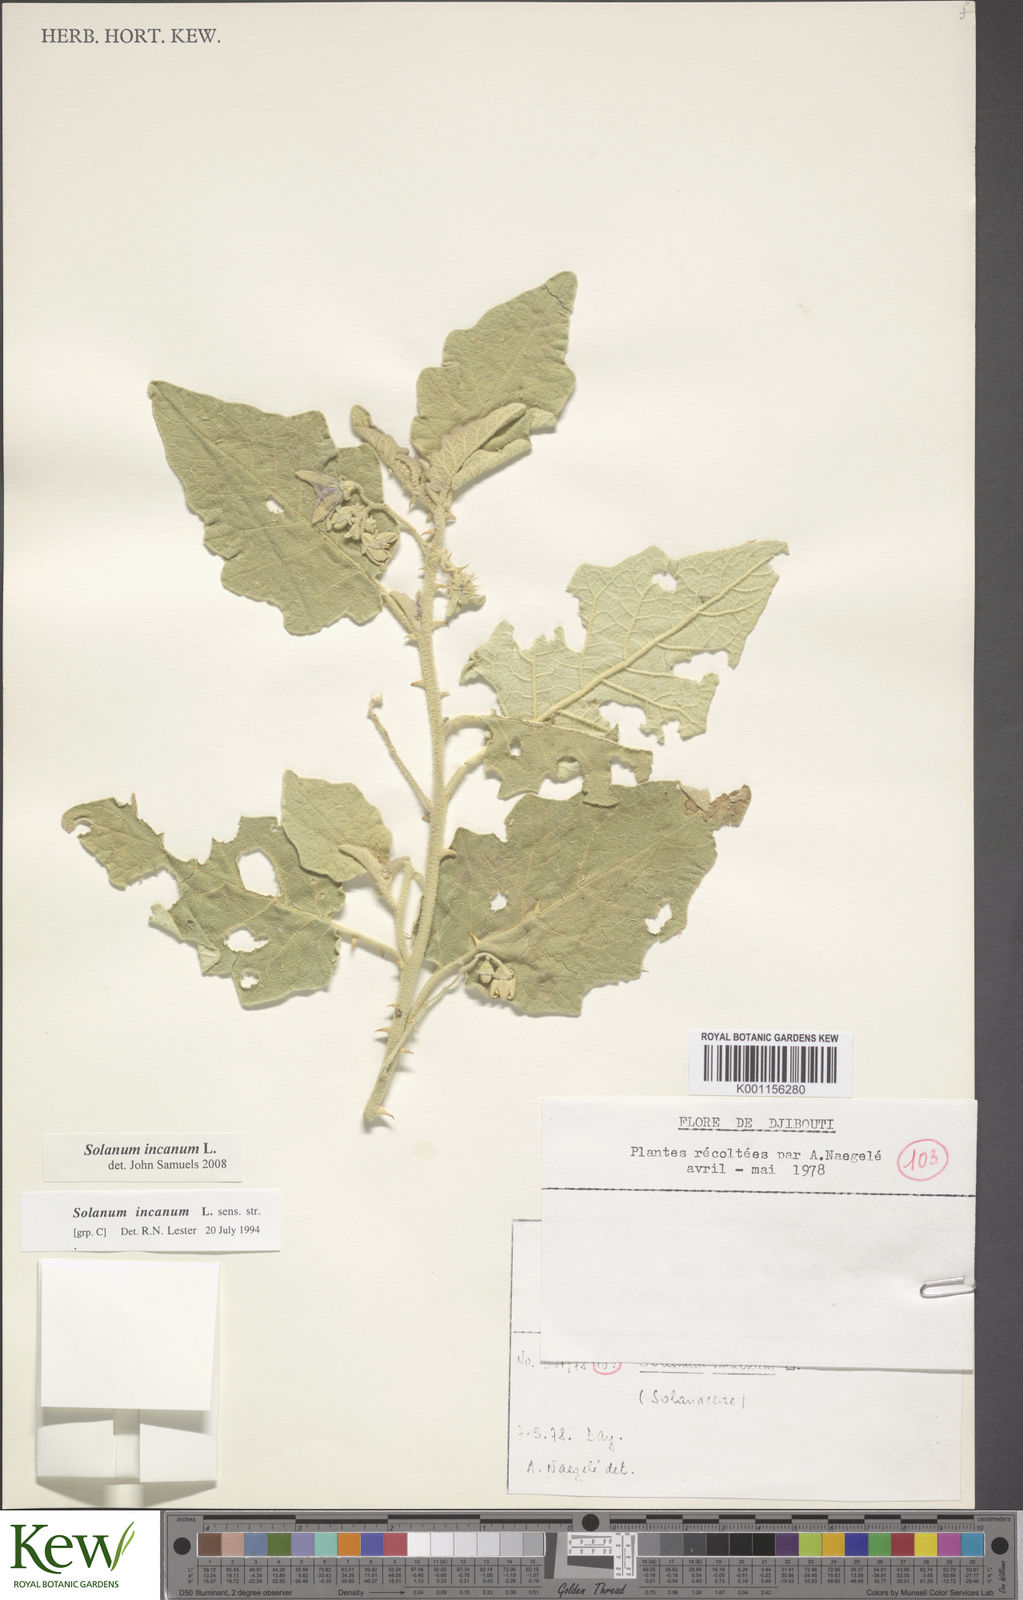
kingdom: Plantae
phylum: Tracheophyta
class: Magnoliopsida
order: Solanales
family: Solanaceae
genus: Solanum
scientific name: Solanum incanum
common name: Bitter apple
